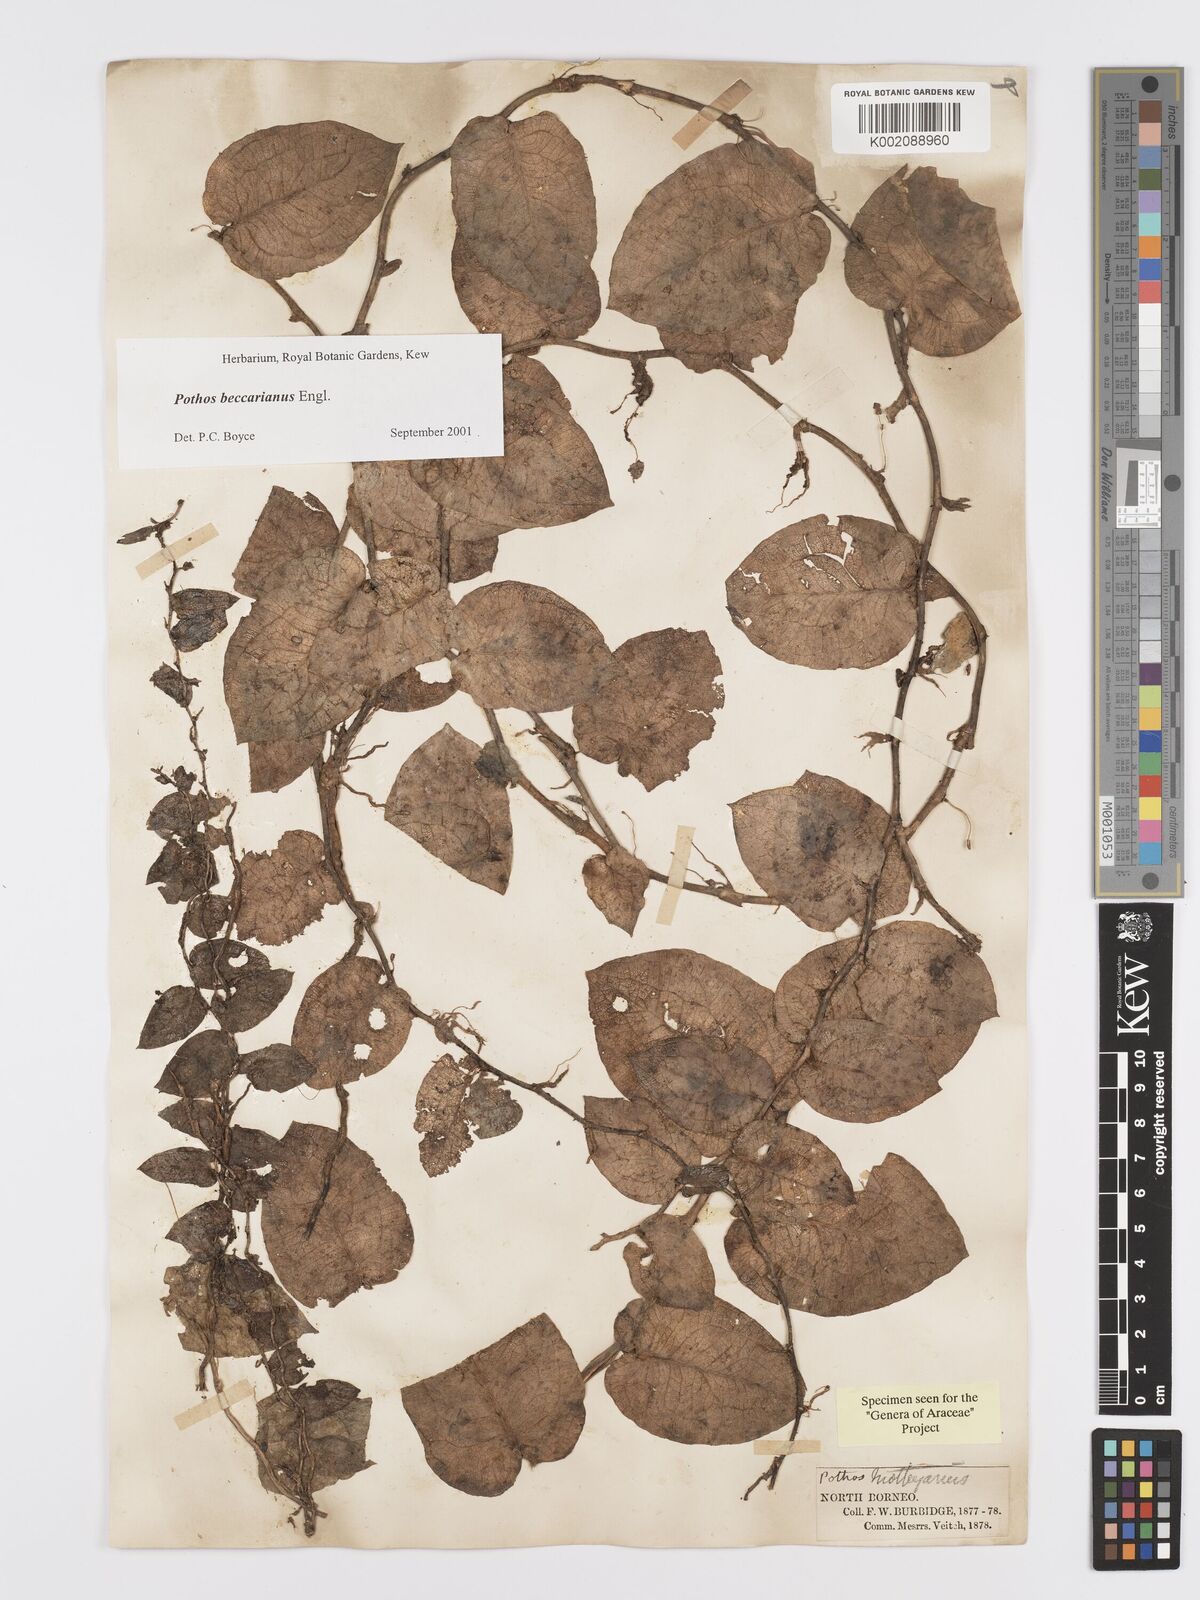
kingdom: Plantae
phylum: Tracheophyta
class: Liliopsida
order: Alismatales
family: Araceae
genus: Pothos
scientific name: Pothos beccarianus
